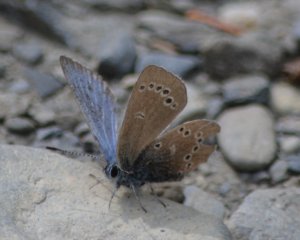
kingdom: Animalia
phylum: Arthropoda
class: Insecta
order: Lepidoptera
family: Lycaenidae
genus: Glaucopsyche
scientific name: Glaucopsyche lygdamus
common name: Silvery Blue
